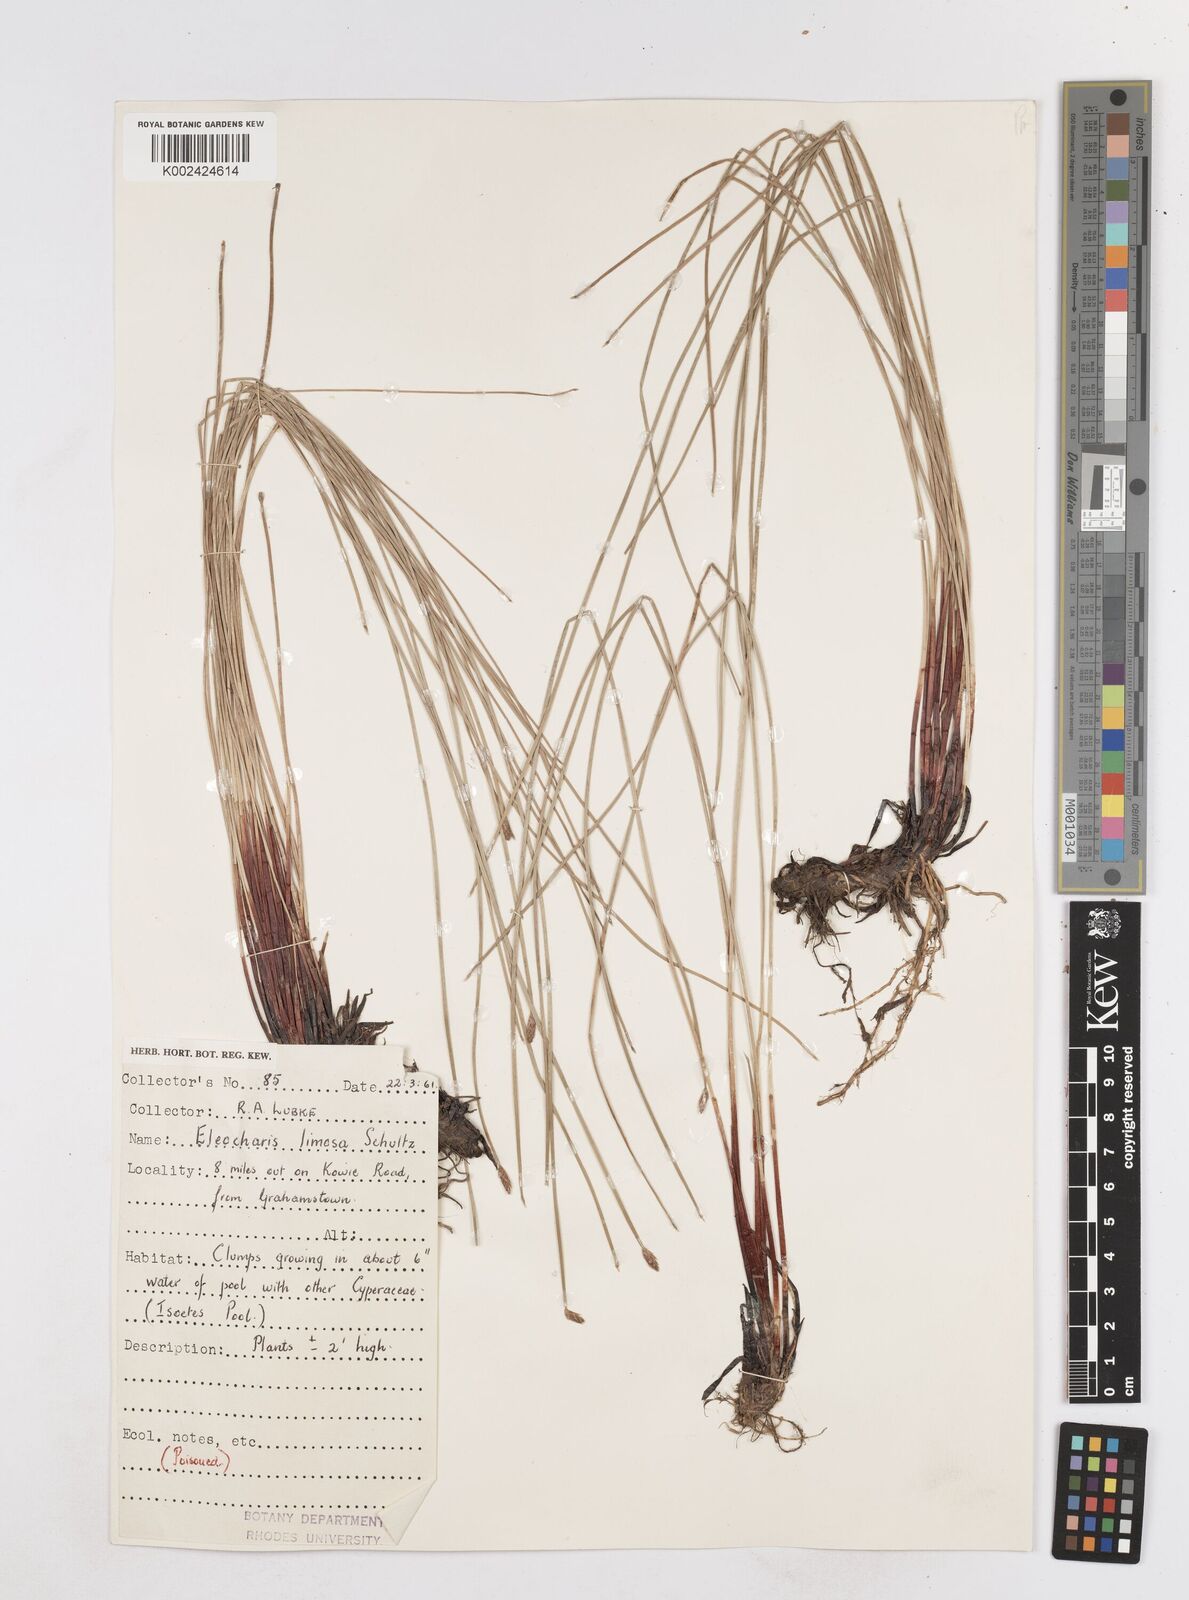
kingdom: Plantae
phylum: Tracheophyta
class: Liliopsida
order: Poales
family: Cyperaceae
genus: Eleocharis
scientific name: Eleocharis limosa
